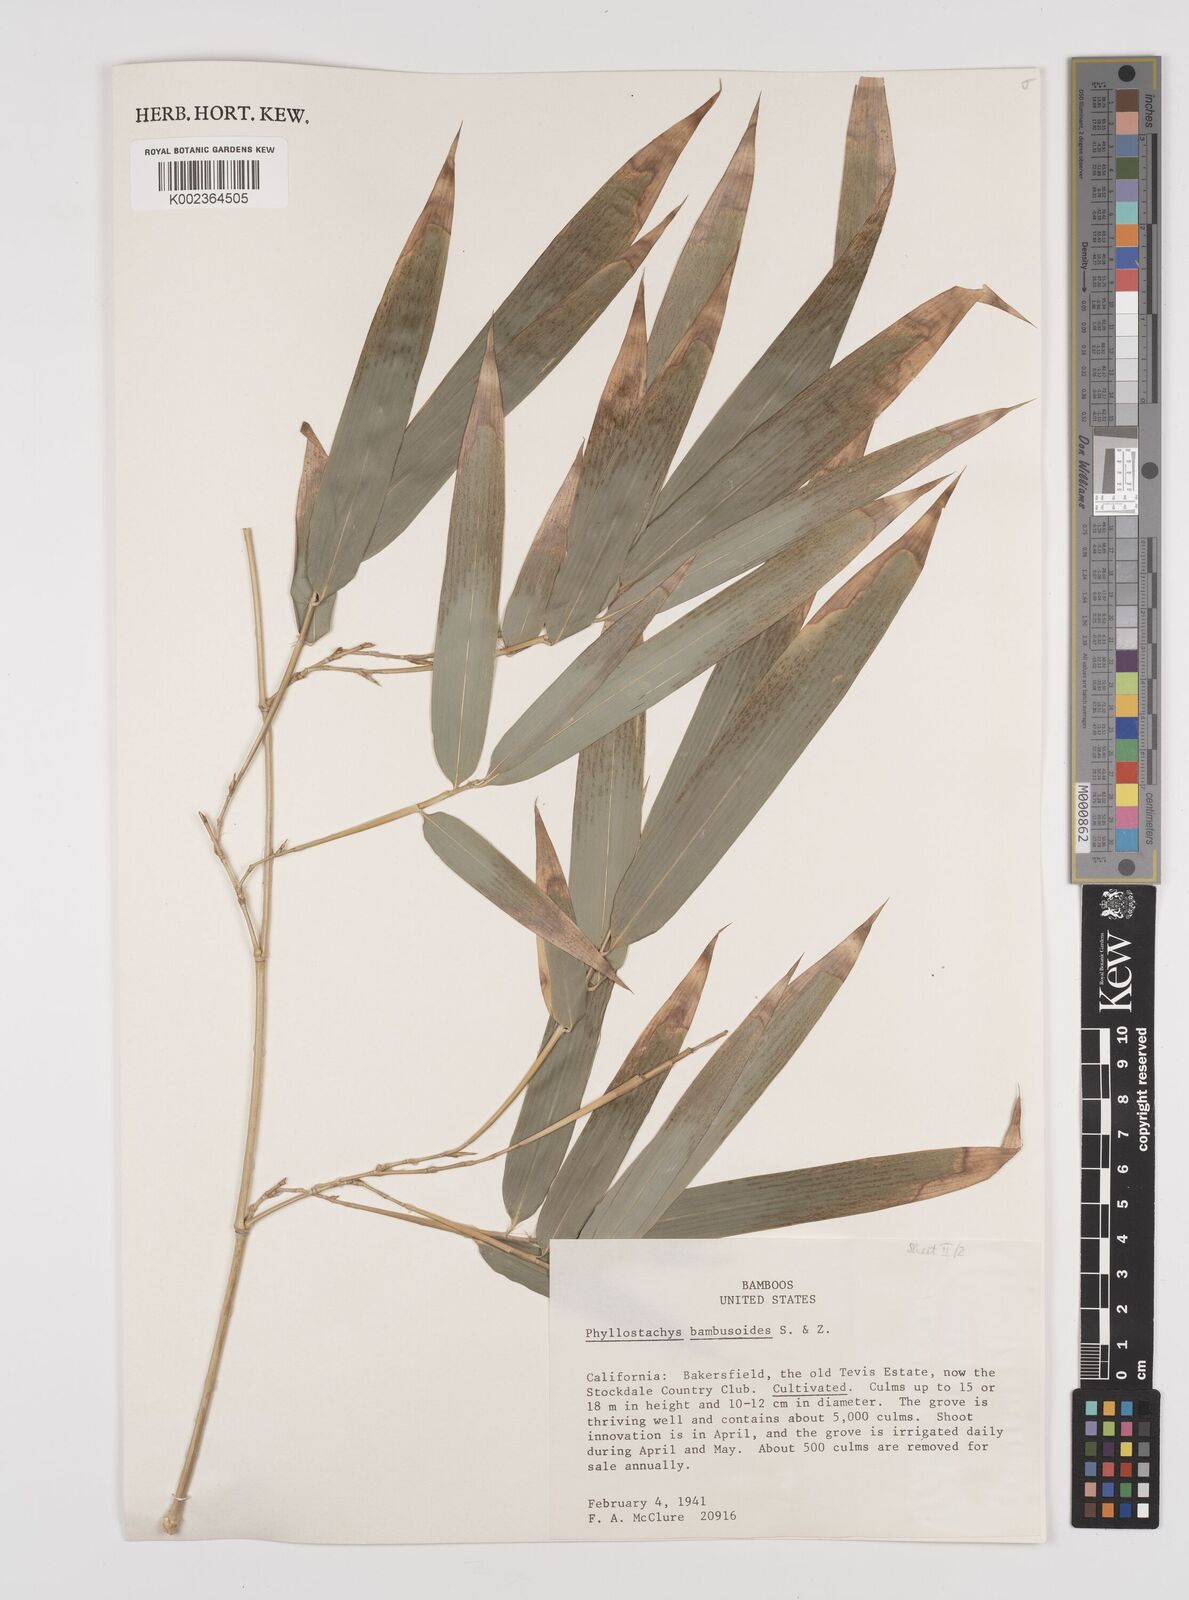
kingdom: Plantae
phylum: Tracheophyta
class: Liliopsida
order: Poales
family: Poaceae
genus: Phyllostachys
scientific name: Phyllostachys reticulata
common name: Bamboo
